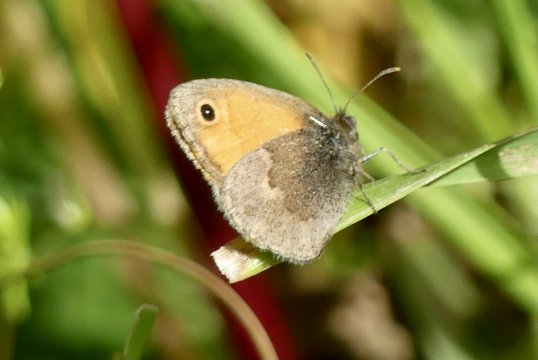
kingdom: Animalia
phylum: Arthropoda
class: Insecta
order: Lepidoptera
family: Nymphalidae
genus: Coenonympha
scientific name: Coenonympha pamphilus
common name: Small Heath
